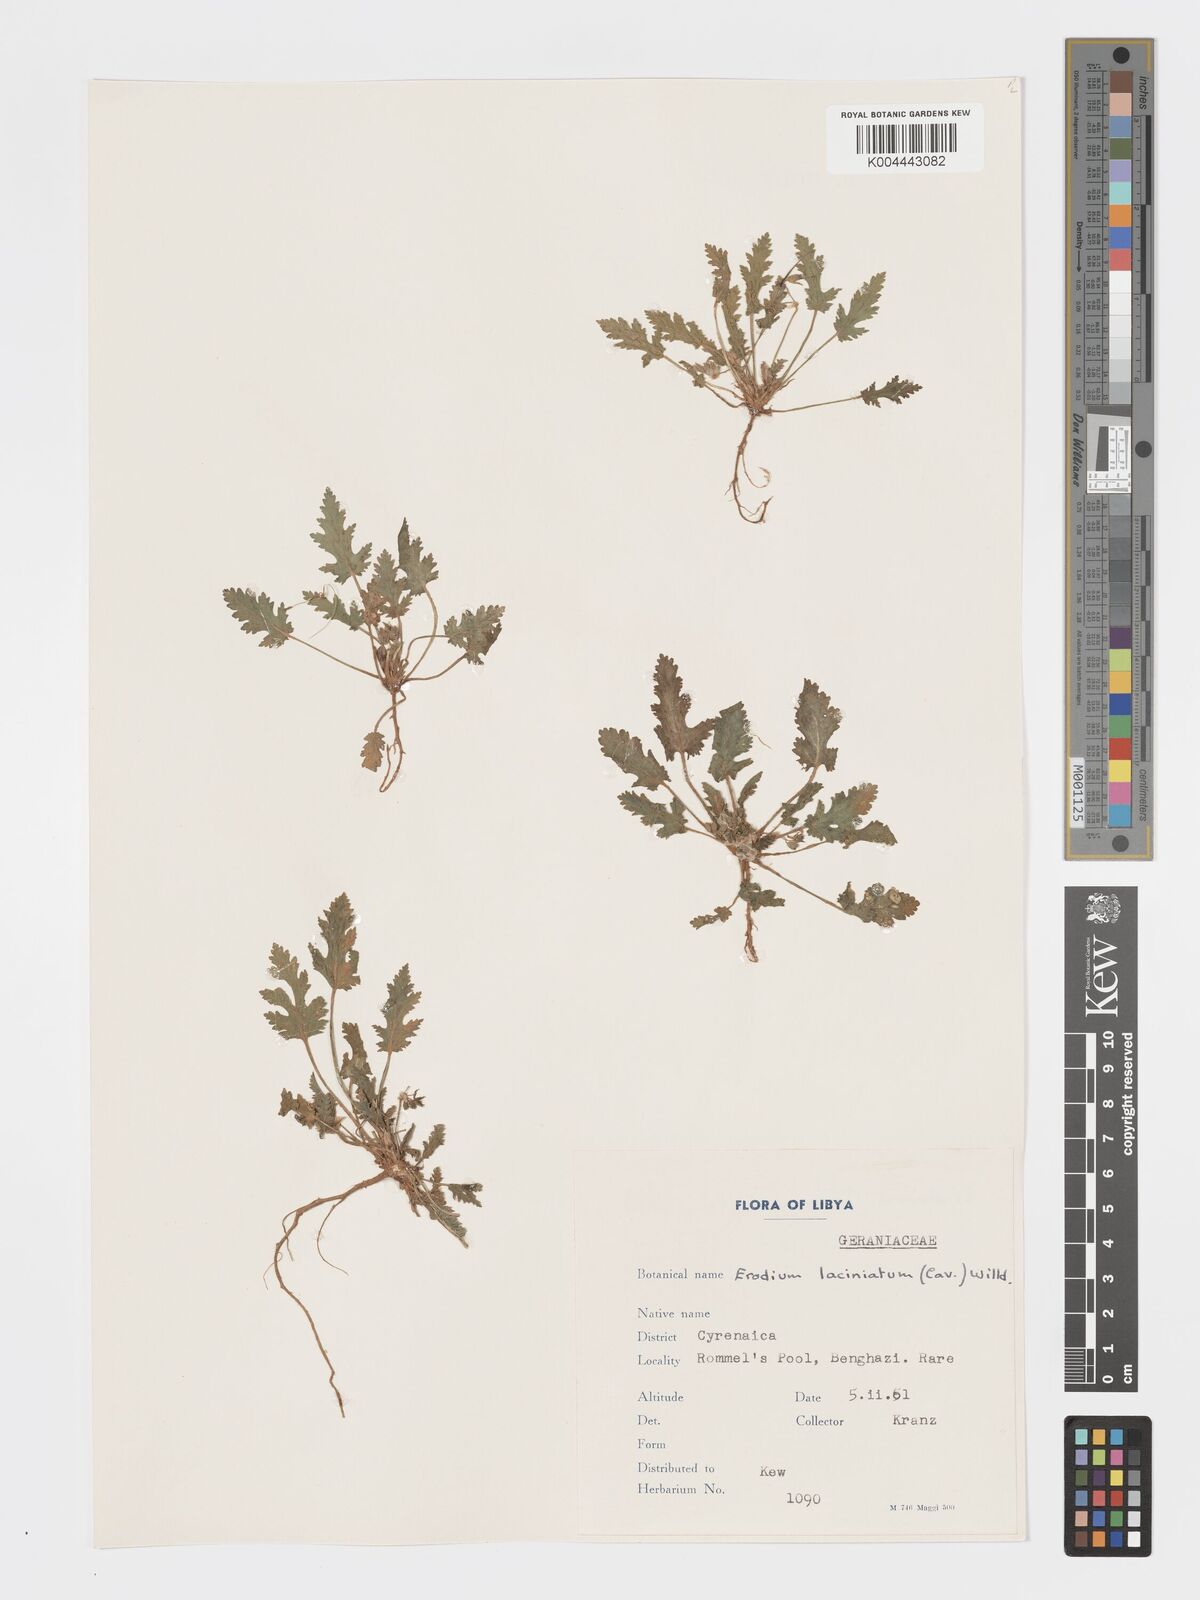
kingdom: Plantae
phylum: Tracheophyta
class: Magnoliopsida
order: Geraniales
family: Geraniaceae
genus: Erodium
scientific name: Erodium laciniatum
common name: Cutleaf stork's bill
